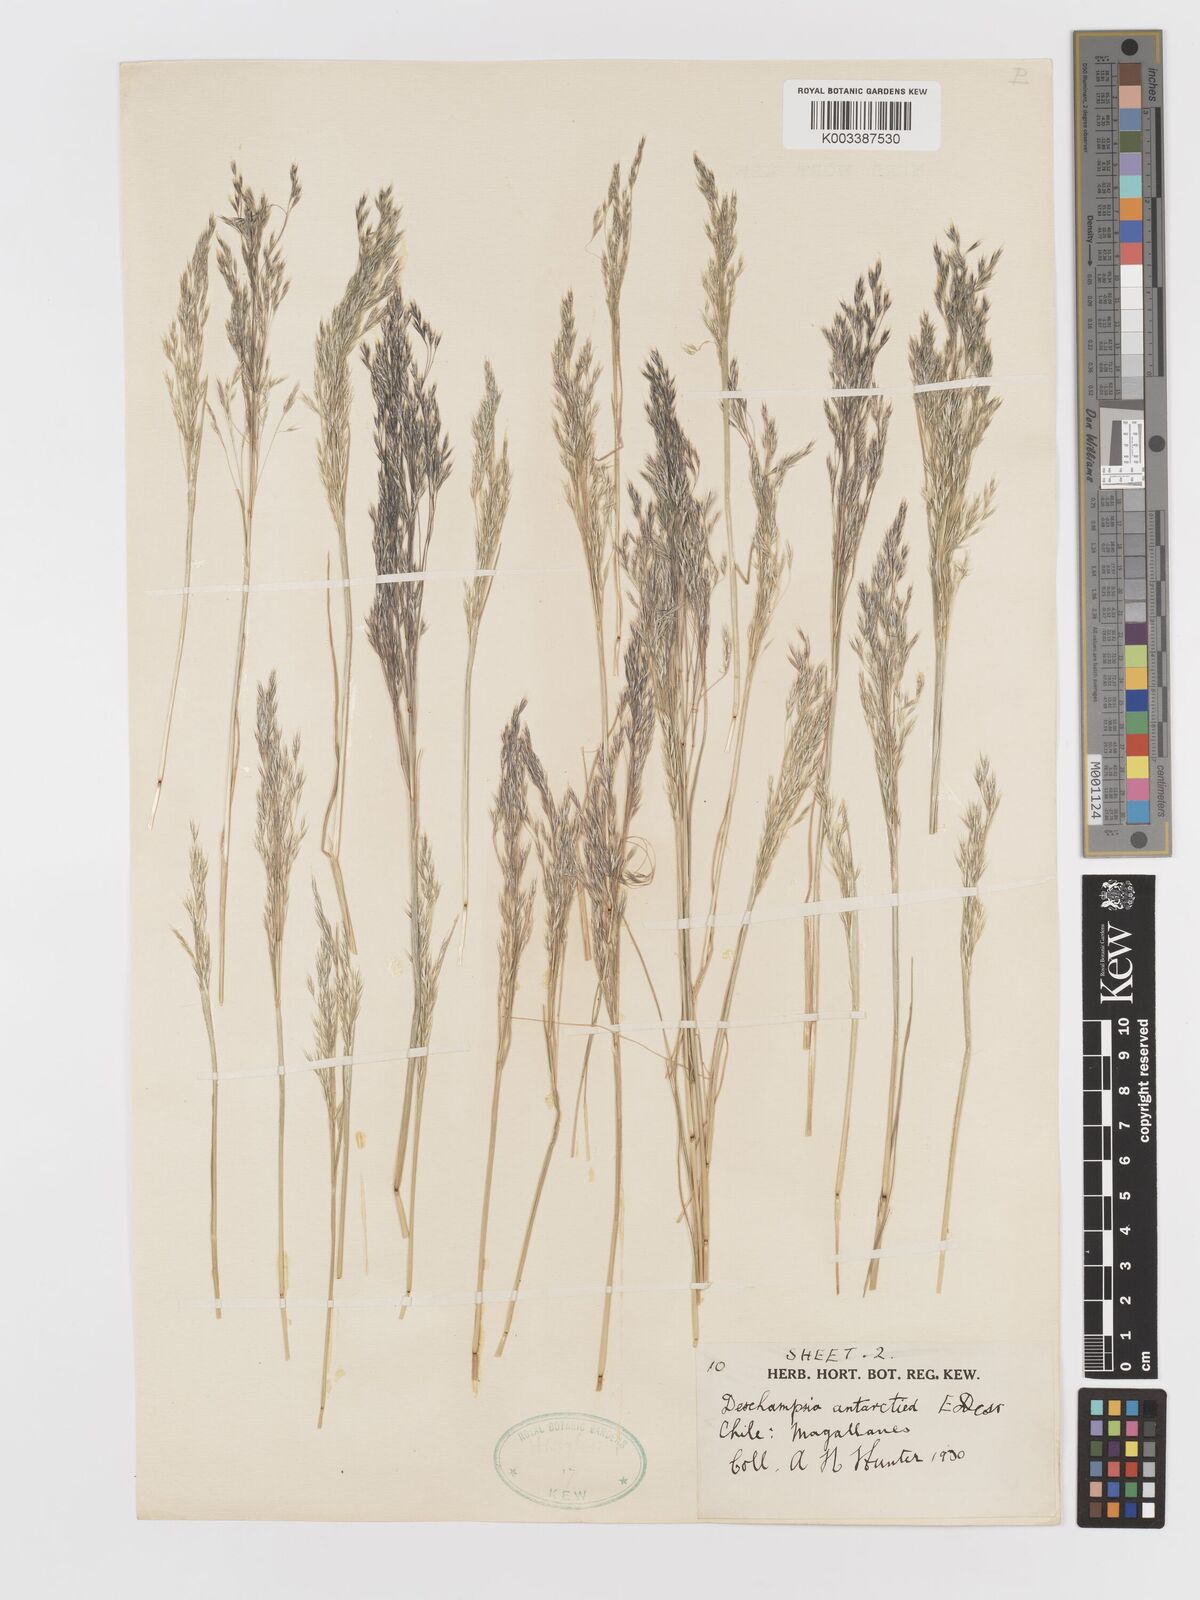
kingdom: Plantae
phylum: Tracheophyta
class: Liliopsida
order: Poales
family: Poaceae
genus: Deschampsia
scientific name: Deschampsia antarctica
